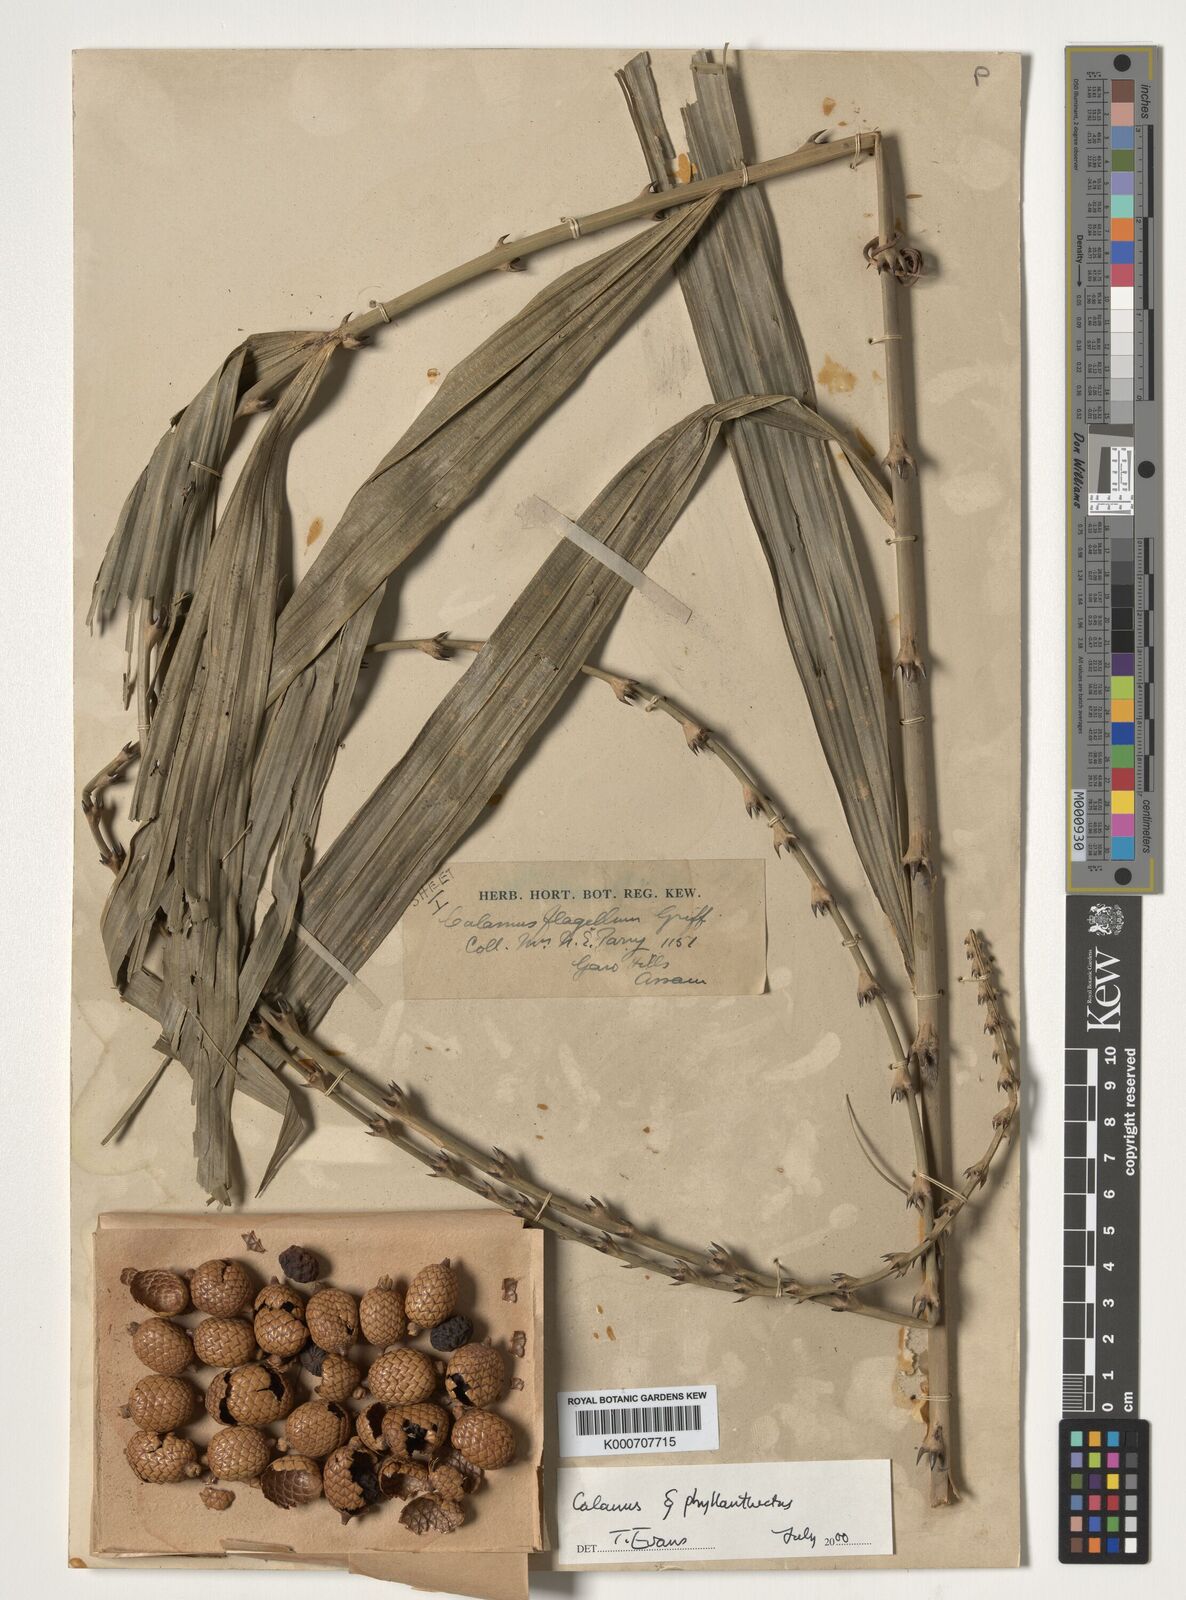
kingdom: Plantae
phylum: Tracheophyta
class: Liliopsida
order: Arecales
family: Arecaceae
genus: Calamus
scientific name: Calamus
